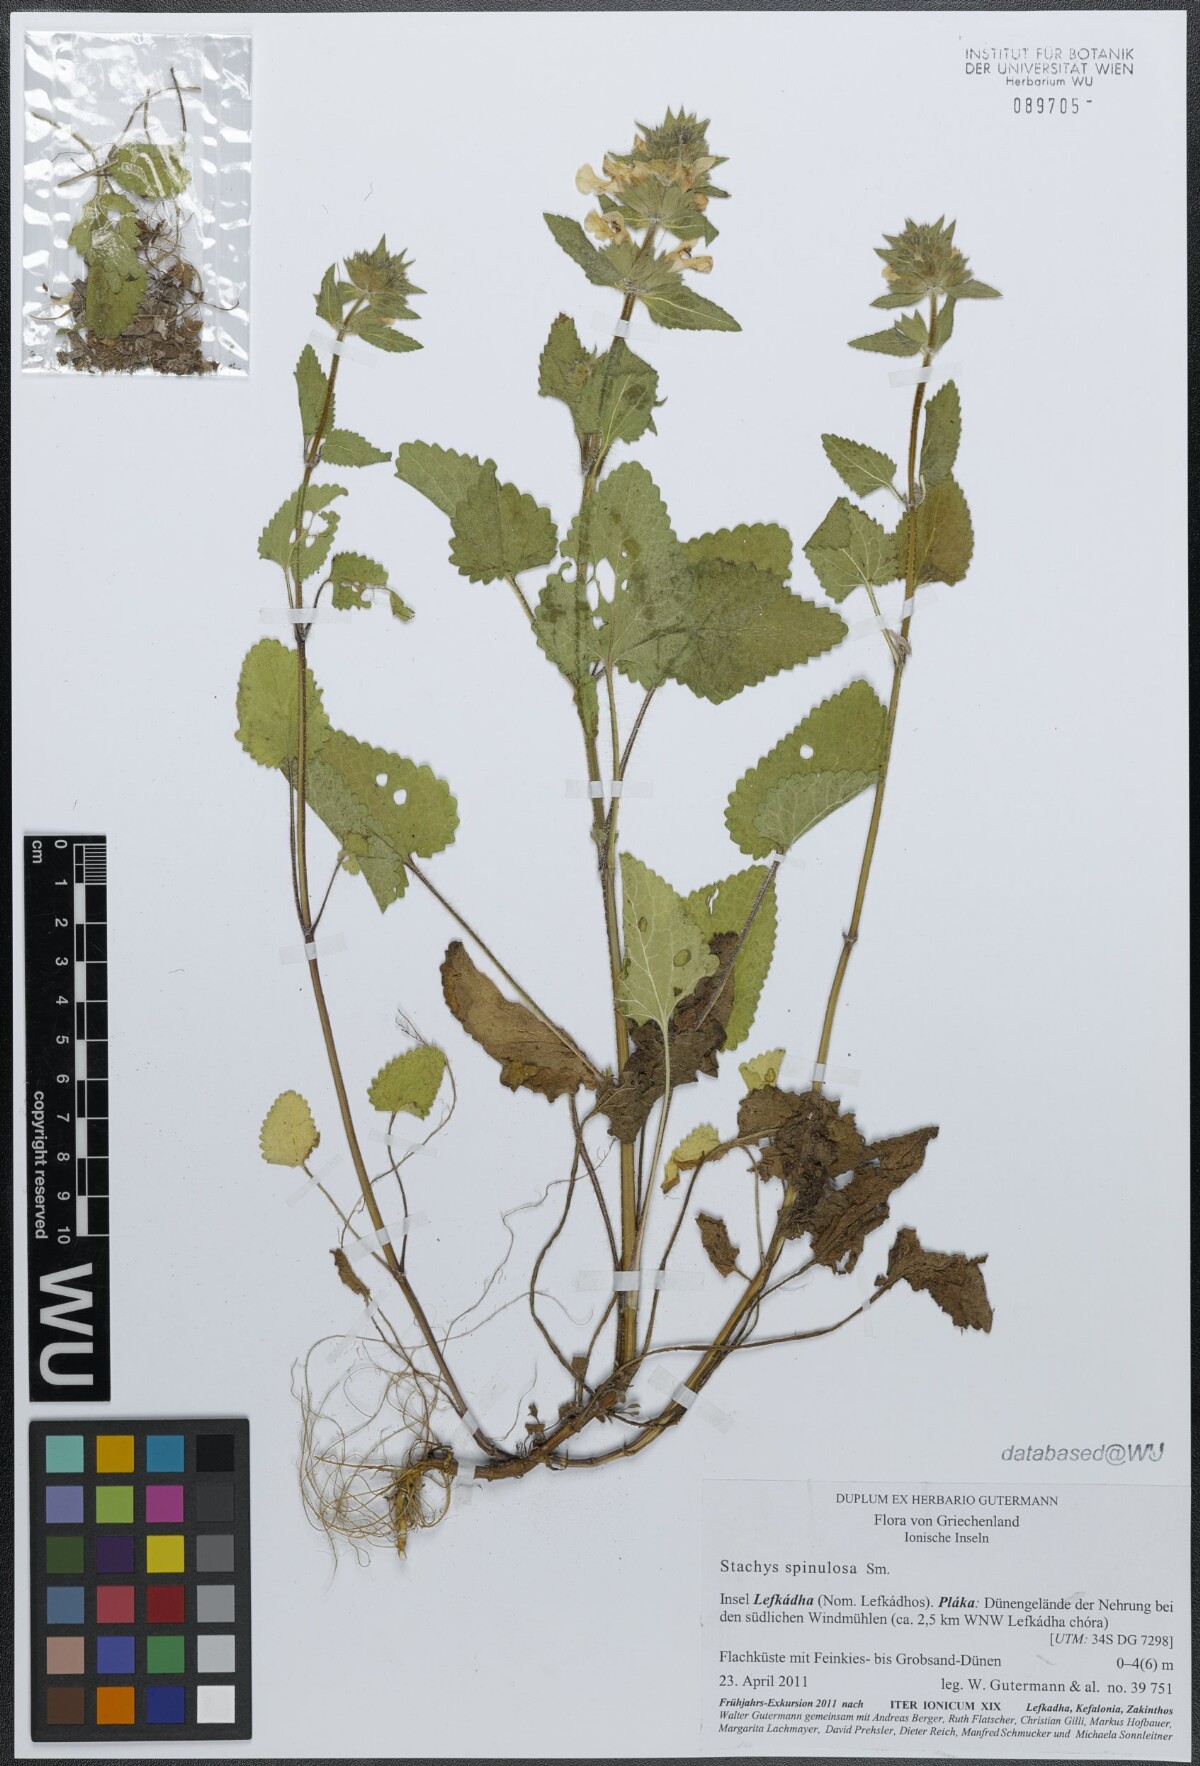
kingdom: Plantae
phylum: Tracheophyta
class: Magnoliopsida
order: Lamiales
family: Lamiaceae
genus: Stachys
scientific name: Stachys spinulosa
